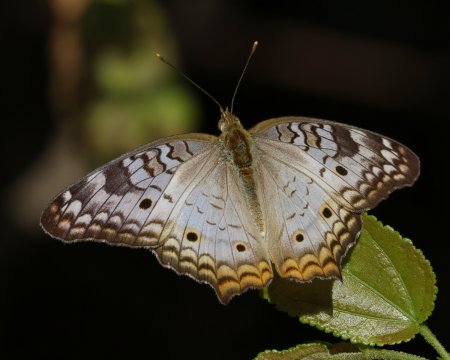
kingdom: Animalia
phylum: Arthropoda
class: Insecta
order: Lepidoptera
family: Nymphalidae
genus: Anartia
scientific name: Anartia jatrophae
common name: White Peacock
